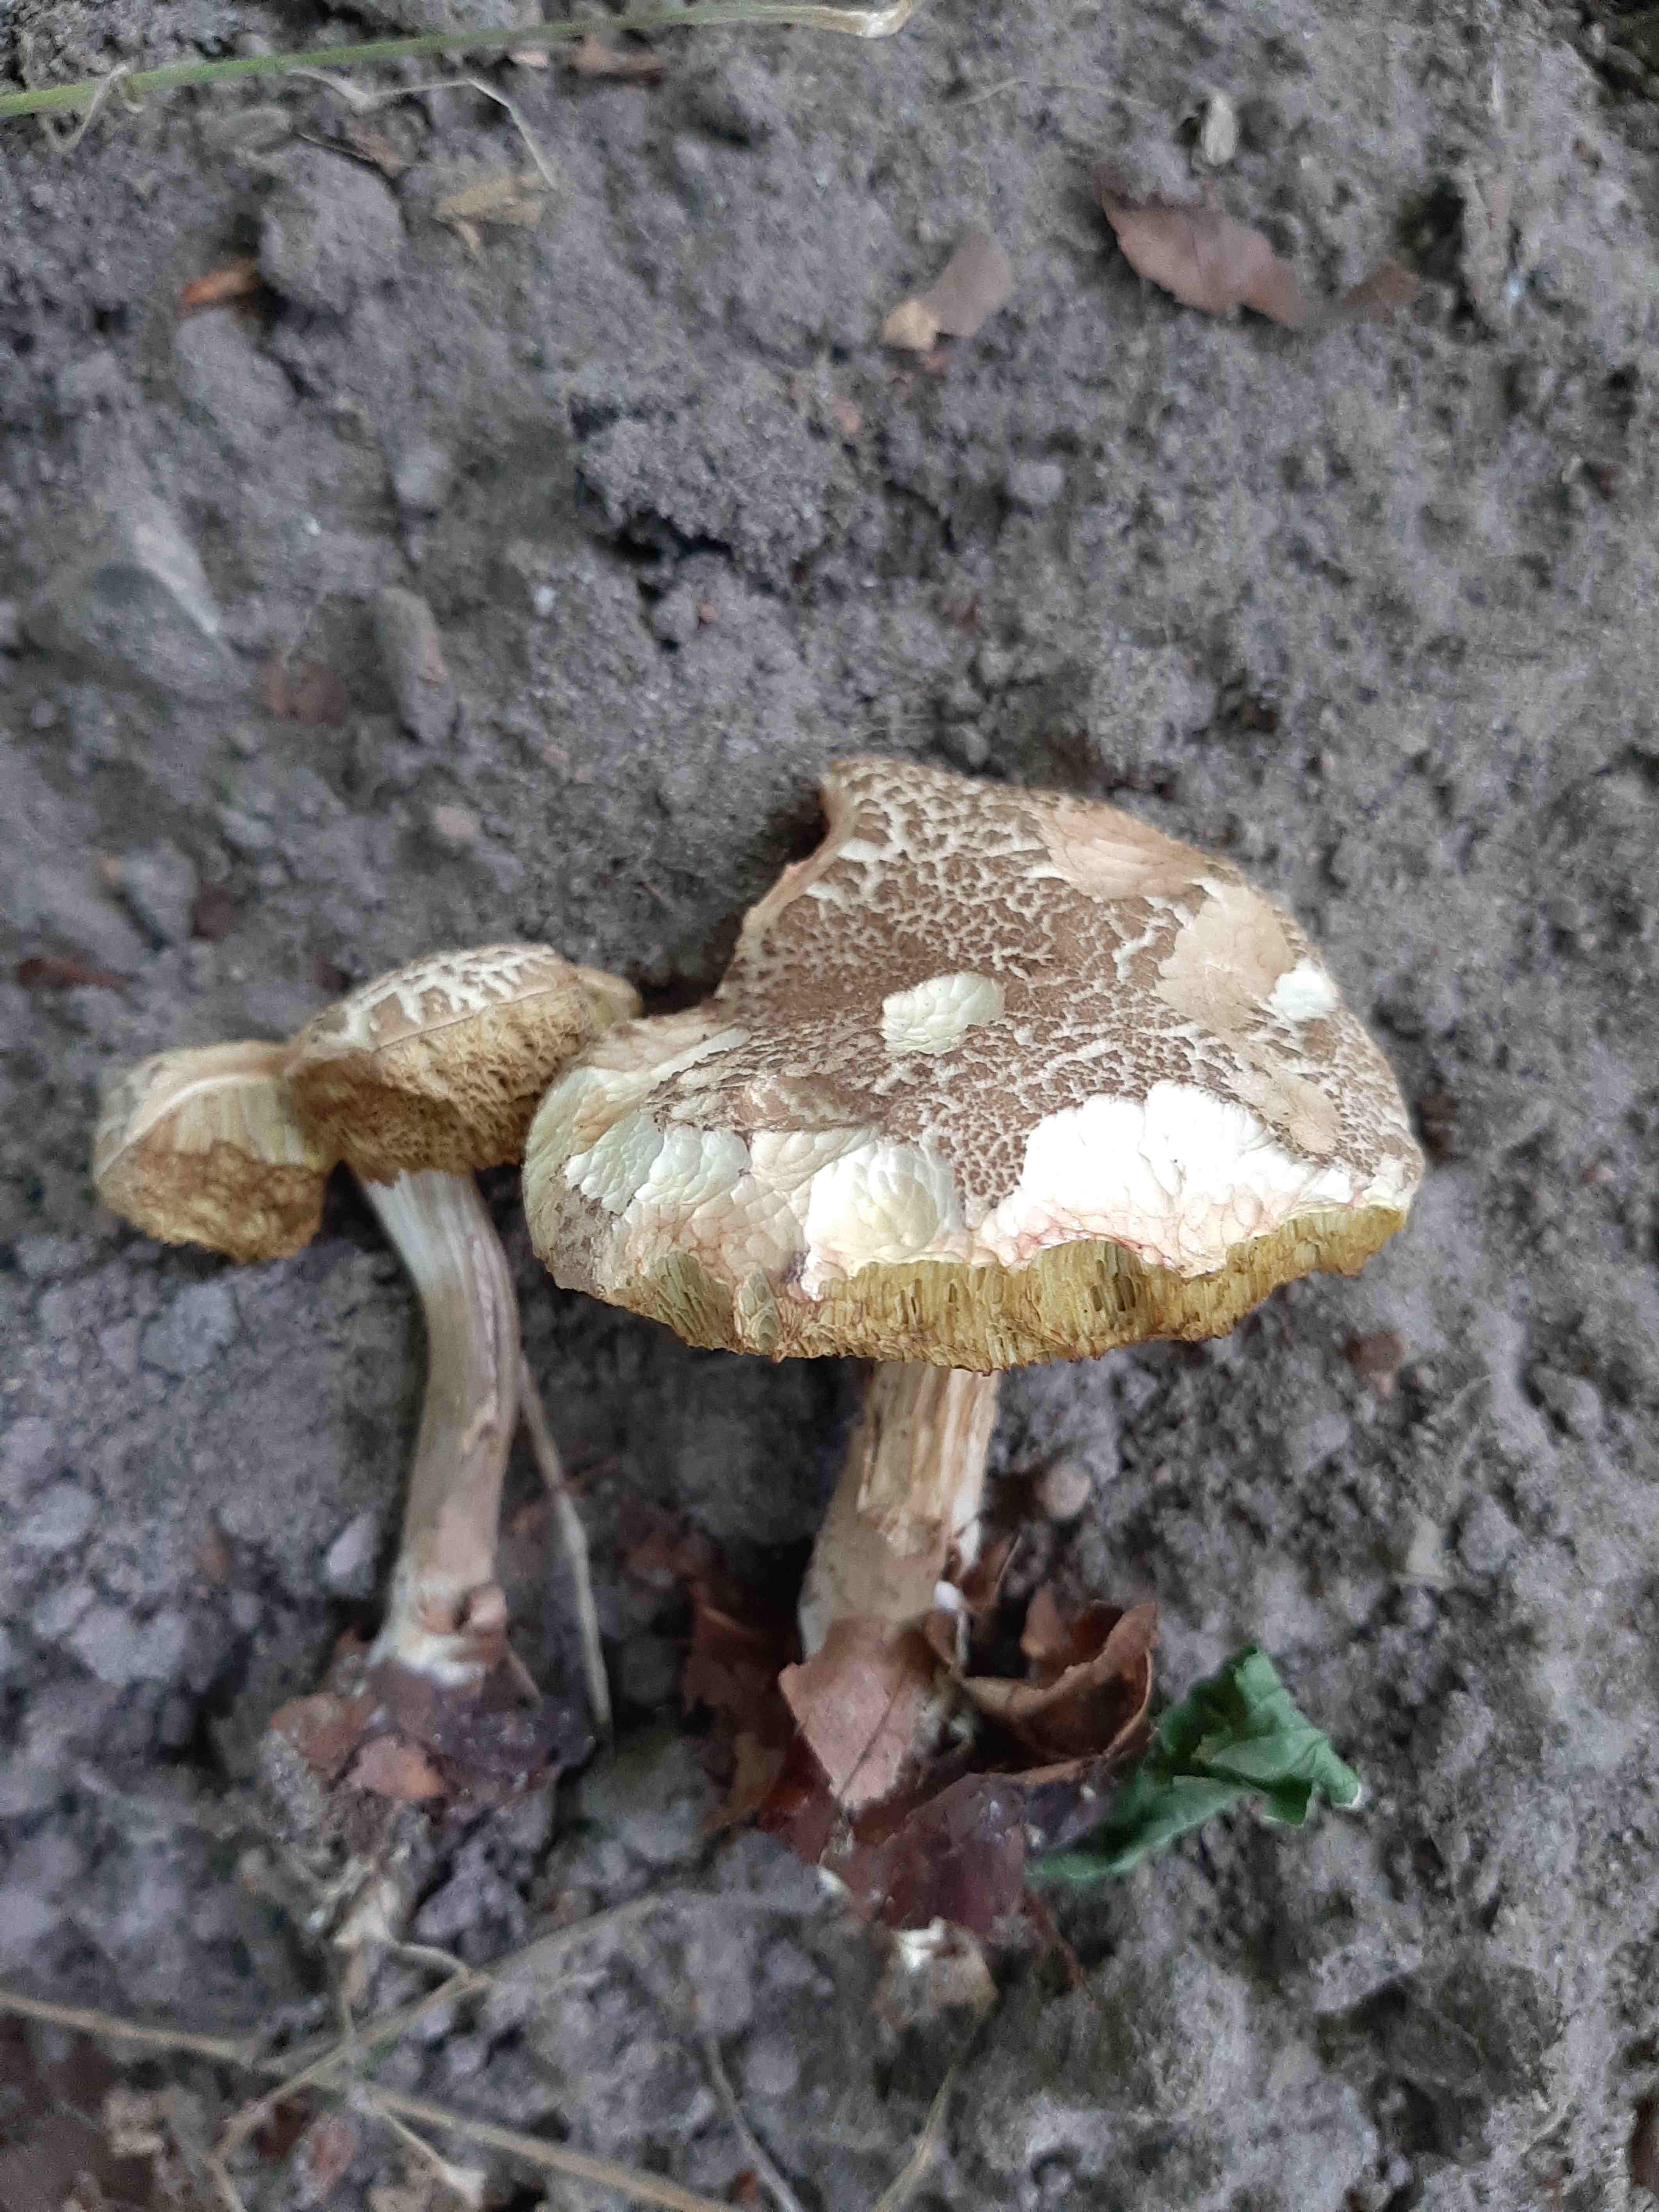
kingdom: Fungi
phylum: Basidiomycota
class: Agaricomycetes
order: Boletales
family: Boletaceae
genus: Xerocomellus
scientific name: Xerocomellus porosporus
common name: hvidsprukken rørhat
